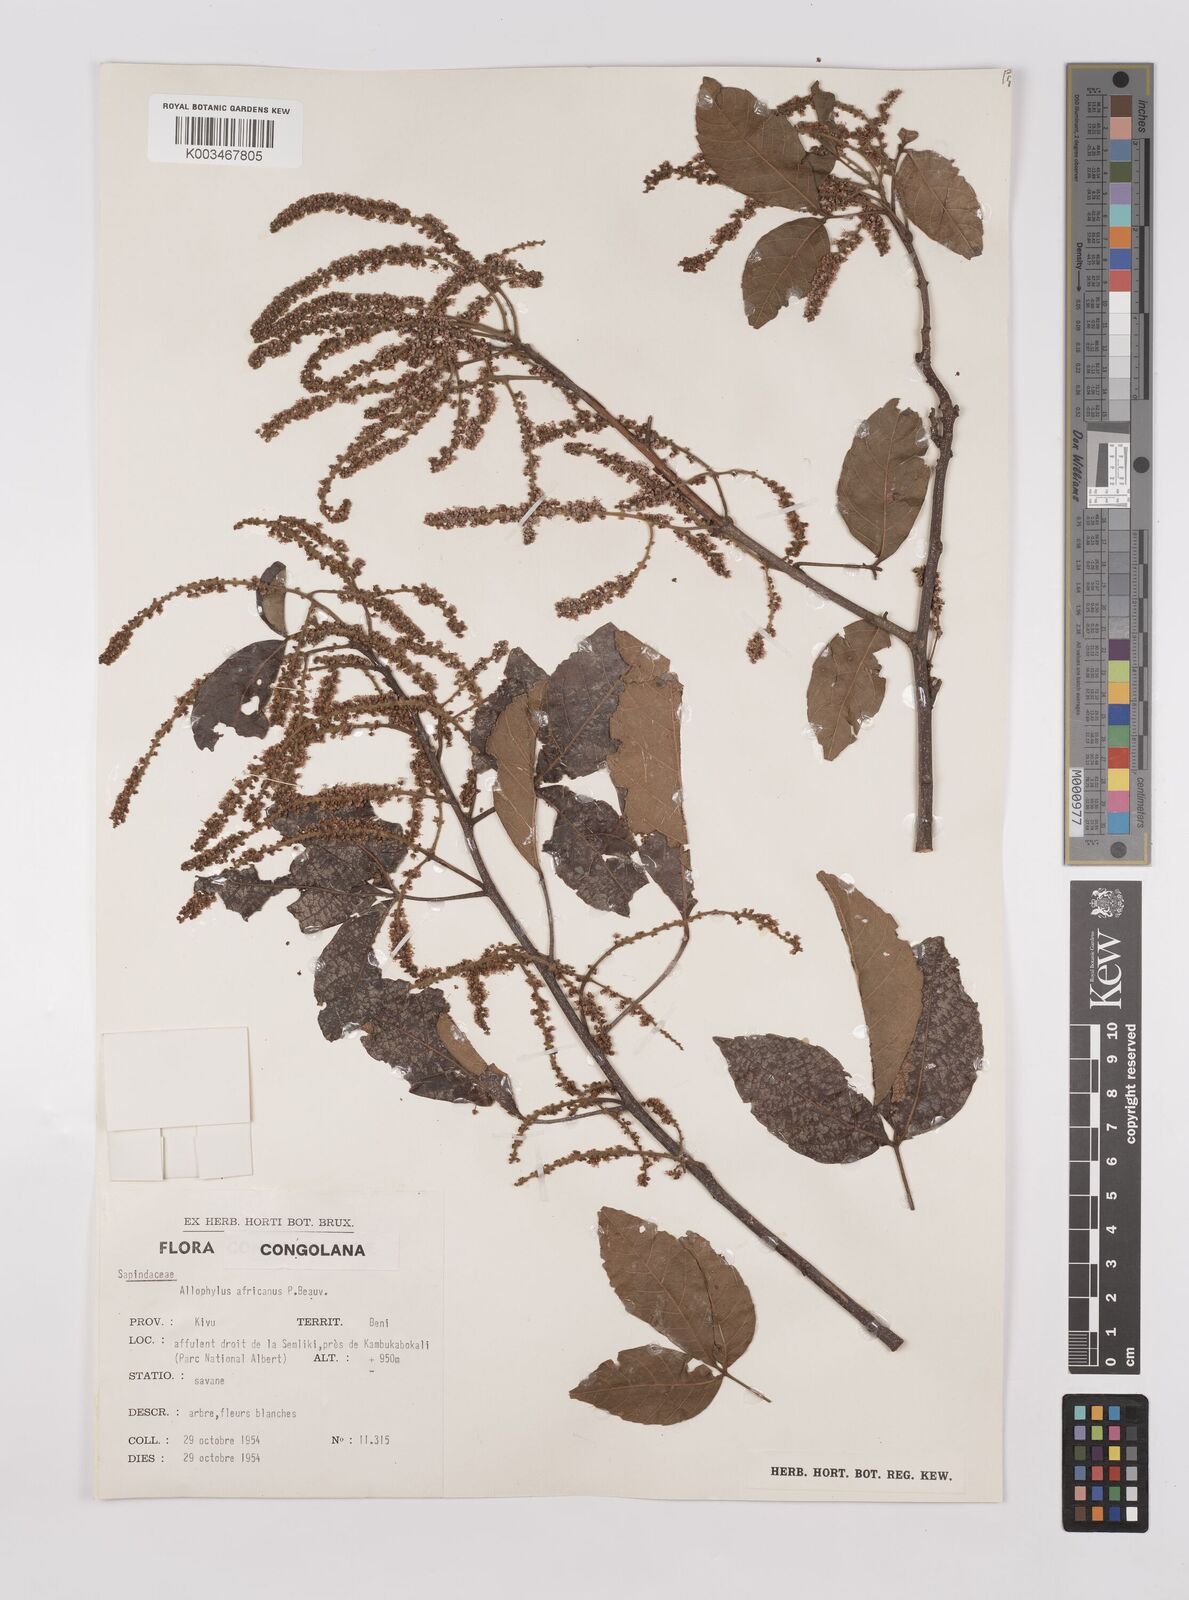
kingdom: Plantae
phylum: Tracheophyta
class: Magnoliopsida
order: Sapindales
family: Sapindaceae
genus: Allophylus
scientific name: Allophylus africanus
